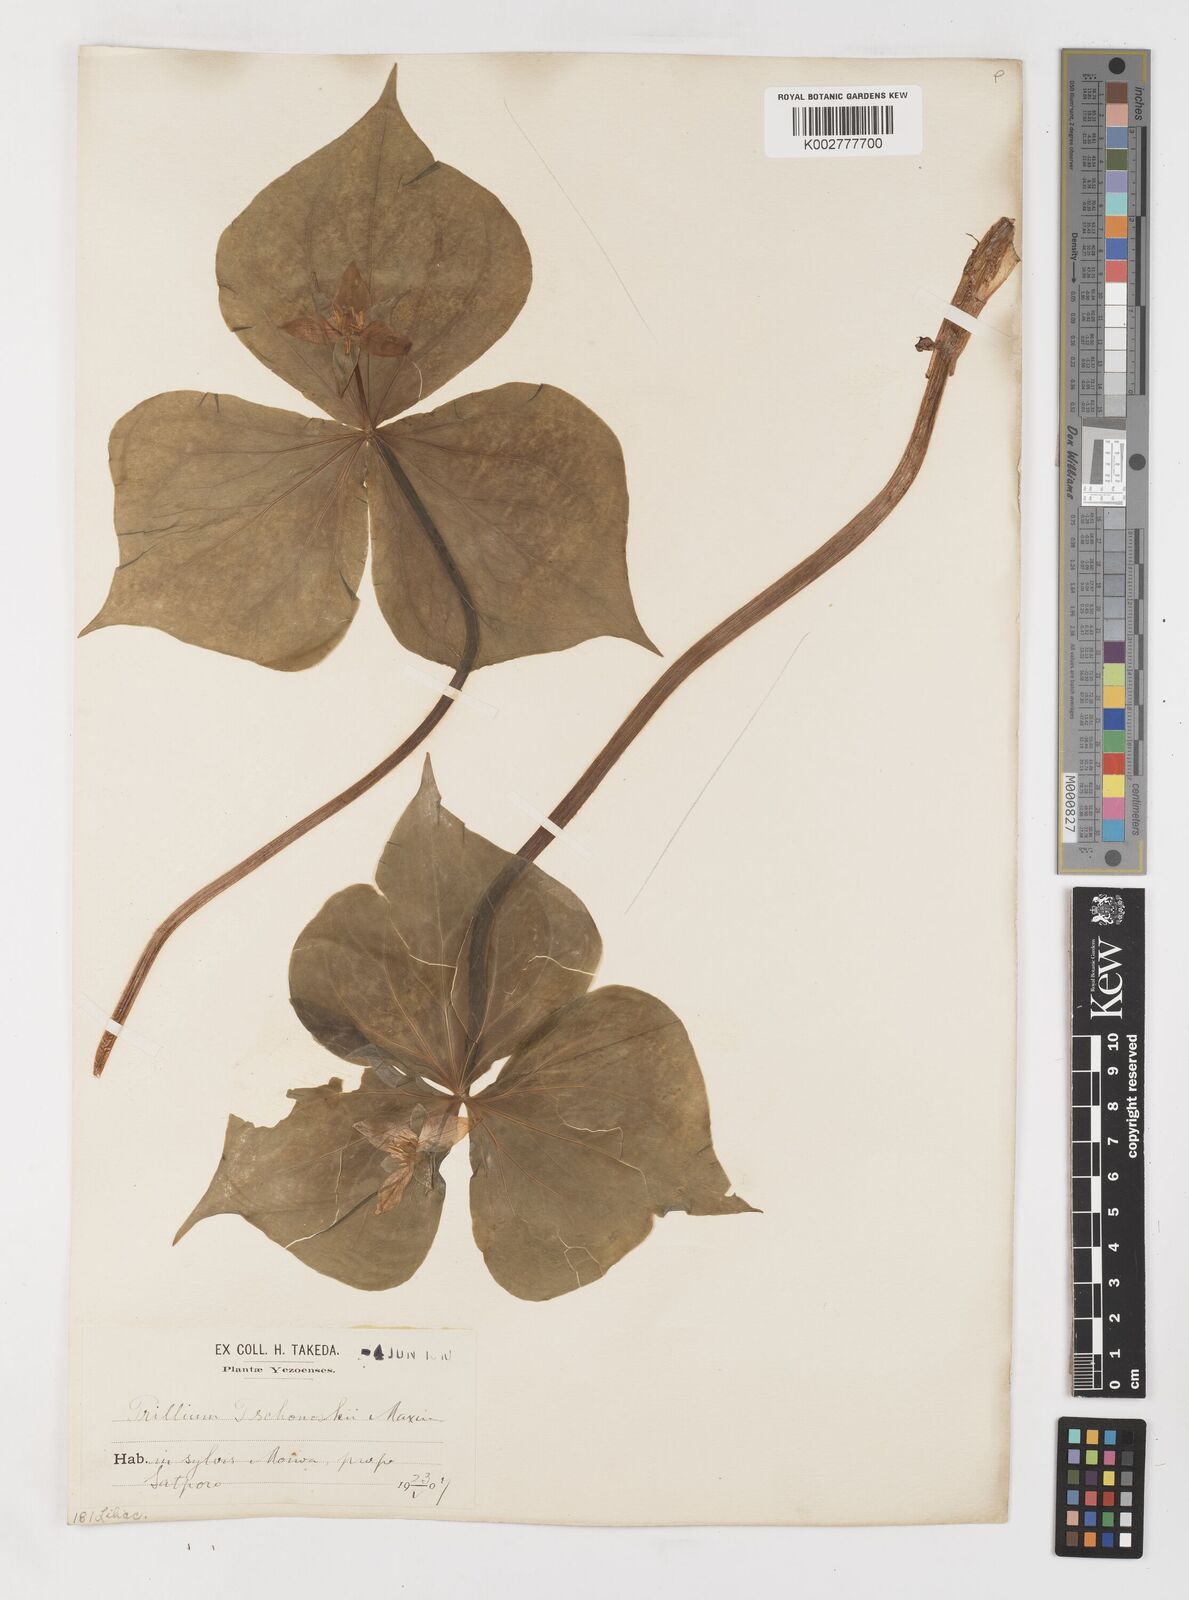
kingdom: Plantae
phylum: Tracheophyta
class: Liliopsida
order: Liliales
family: Melanthiaceae
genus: Trillium
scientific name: Trillium tschonoskii
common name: A pearl on head
